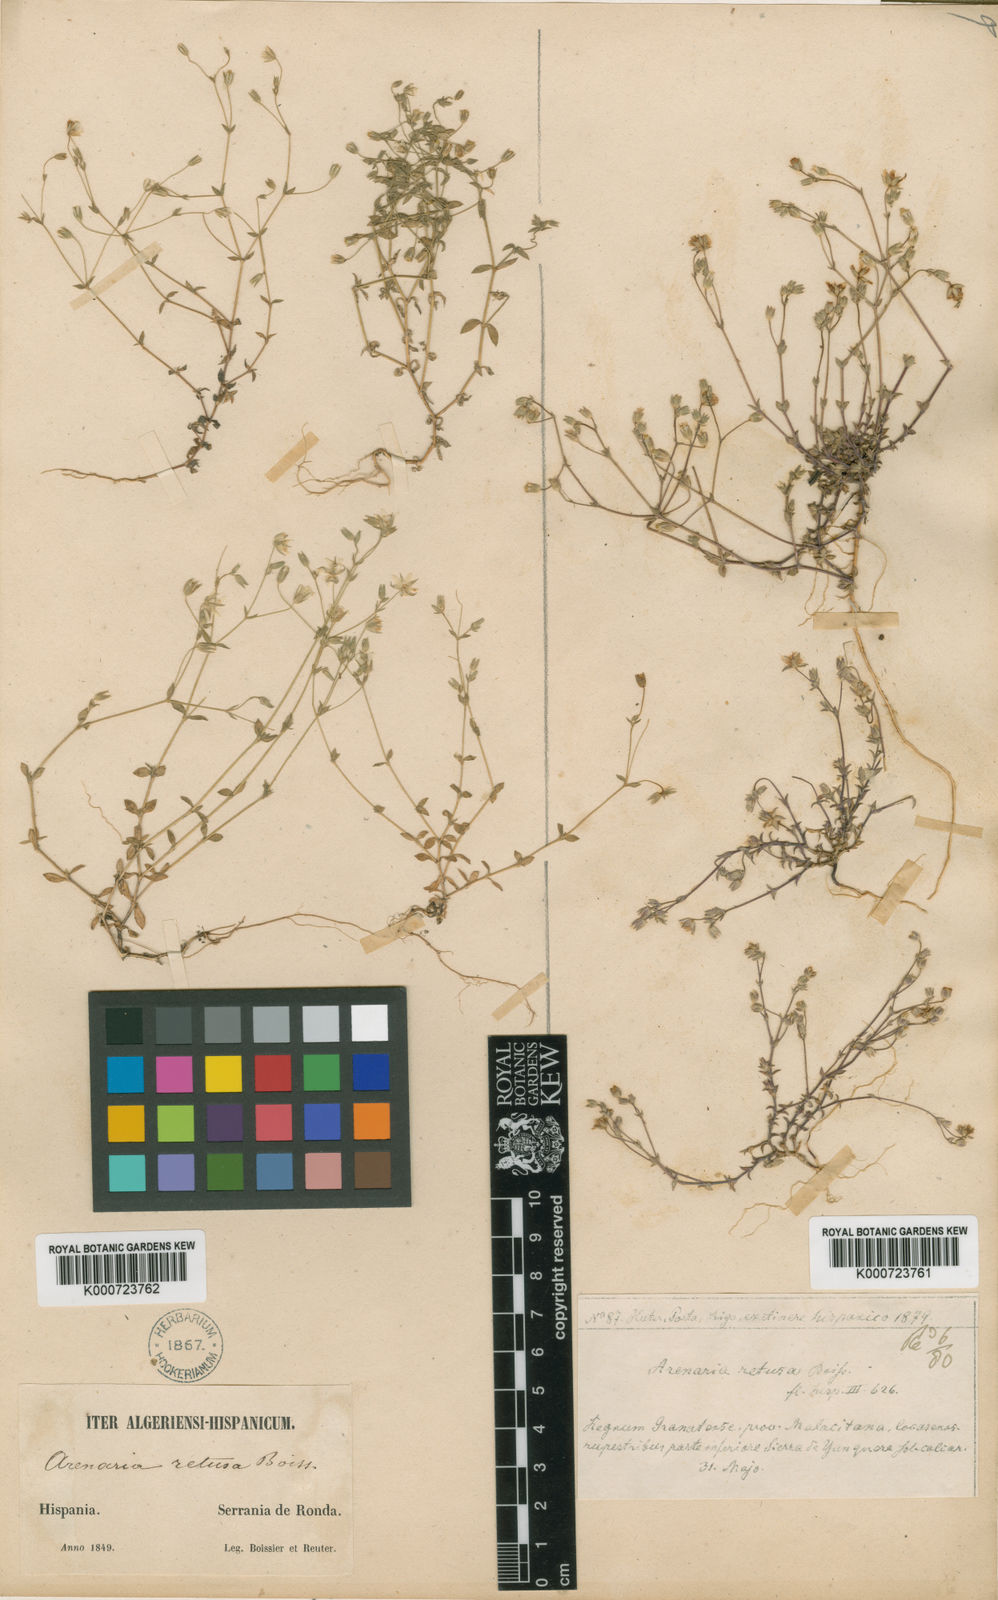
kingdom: Plantae
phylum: Tracheophyta
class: Magnoliopsida
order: Caryophyllales
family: Caryophyllaceae
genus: Arenaria
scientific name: Arenaria retusa
